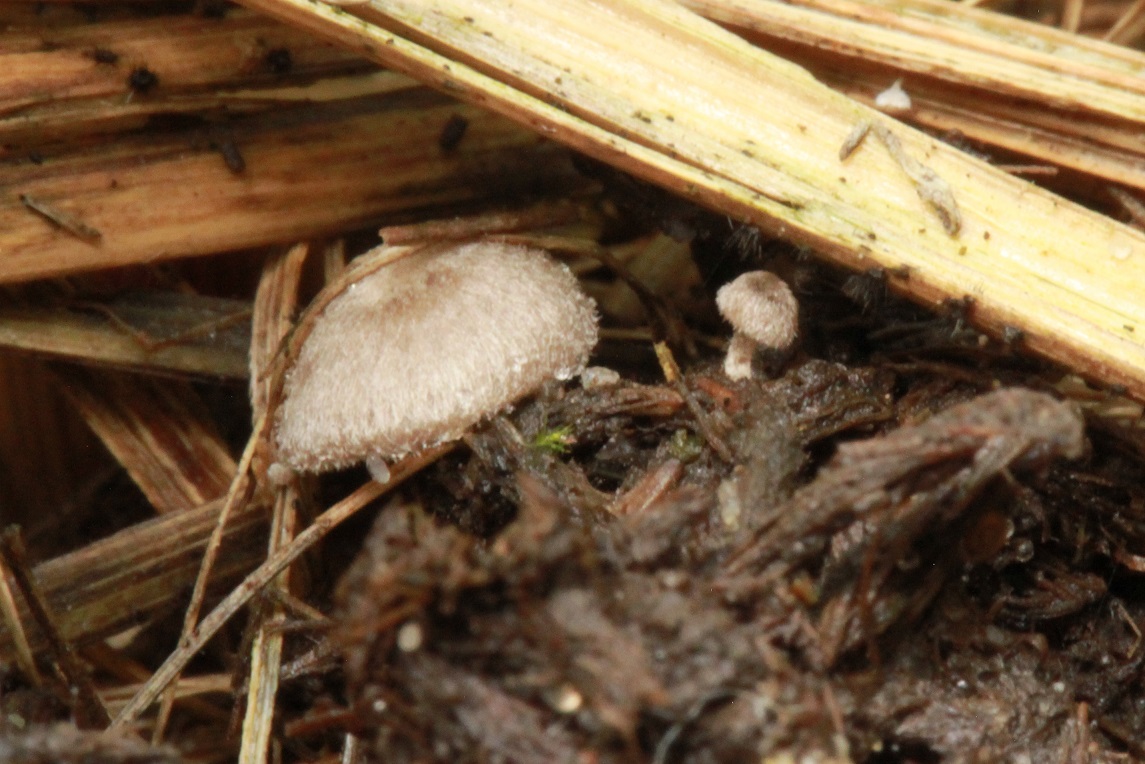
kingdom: Fungi
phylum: Basidiomycota
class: Agaricomycetes
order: Agaricales
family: Entolomataceae
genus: Entoloma
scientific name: Entoloma byssisedum
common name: vifte-rødblad
